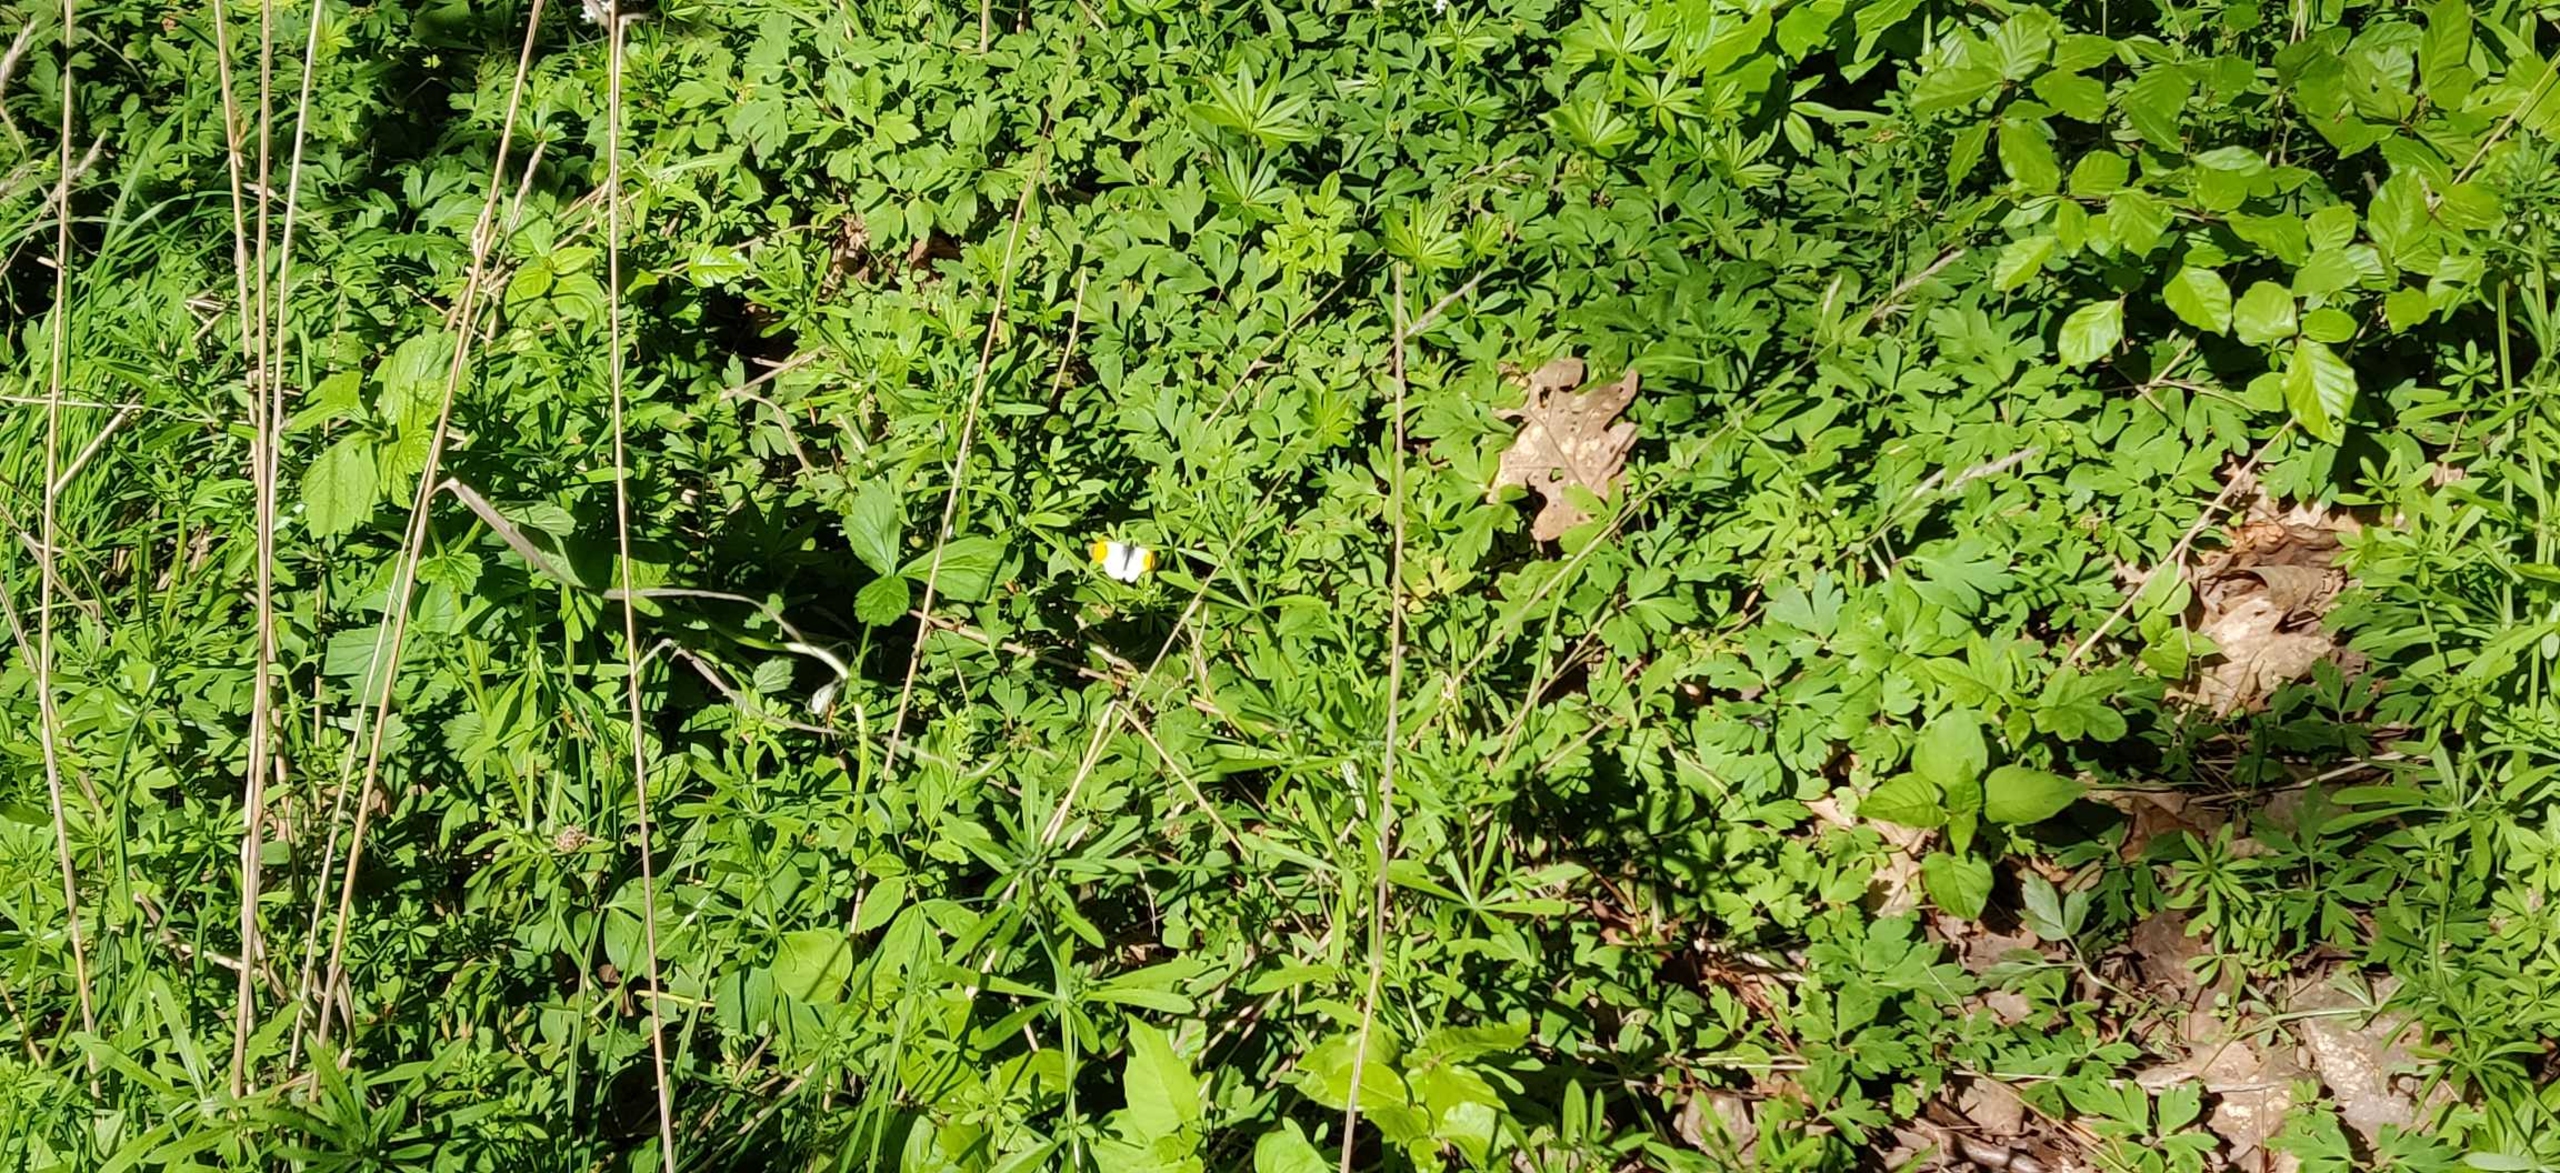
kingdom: Animalia
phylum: Arthropoda
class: Insecta
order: Lepidoptera
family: Pieridae
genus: Anthocharis
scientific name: Anthocharis cardamines
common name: Aurora
